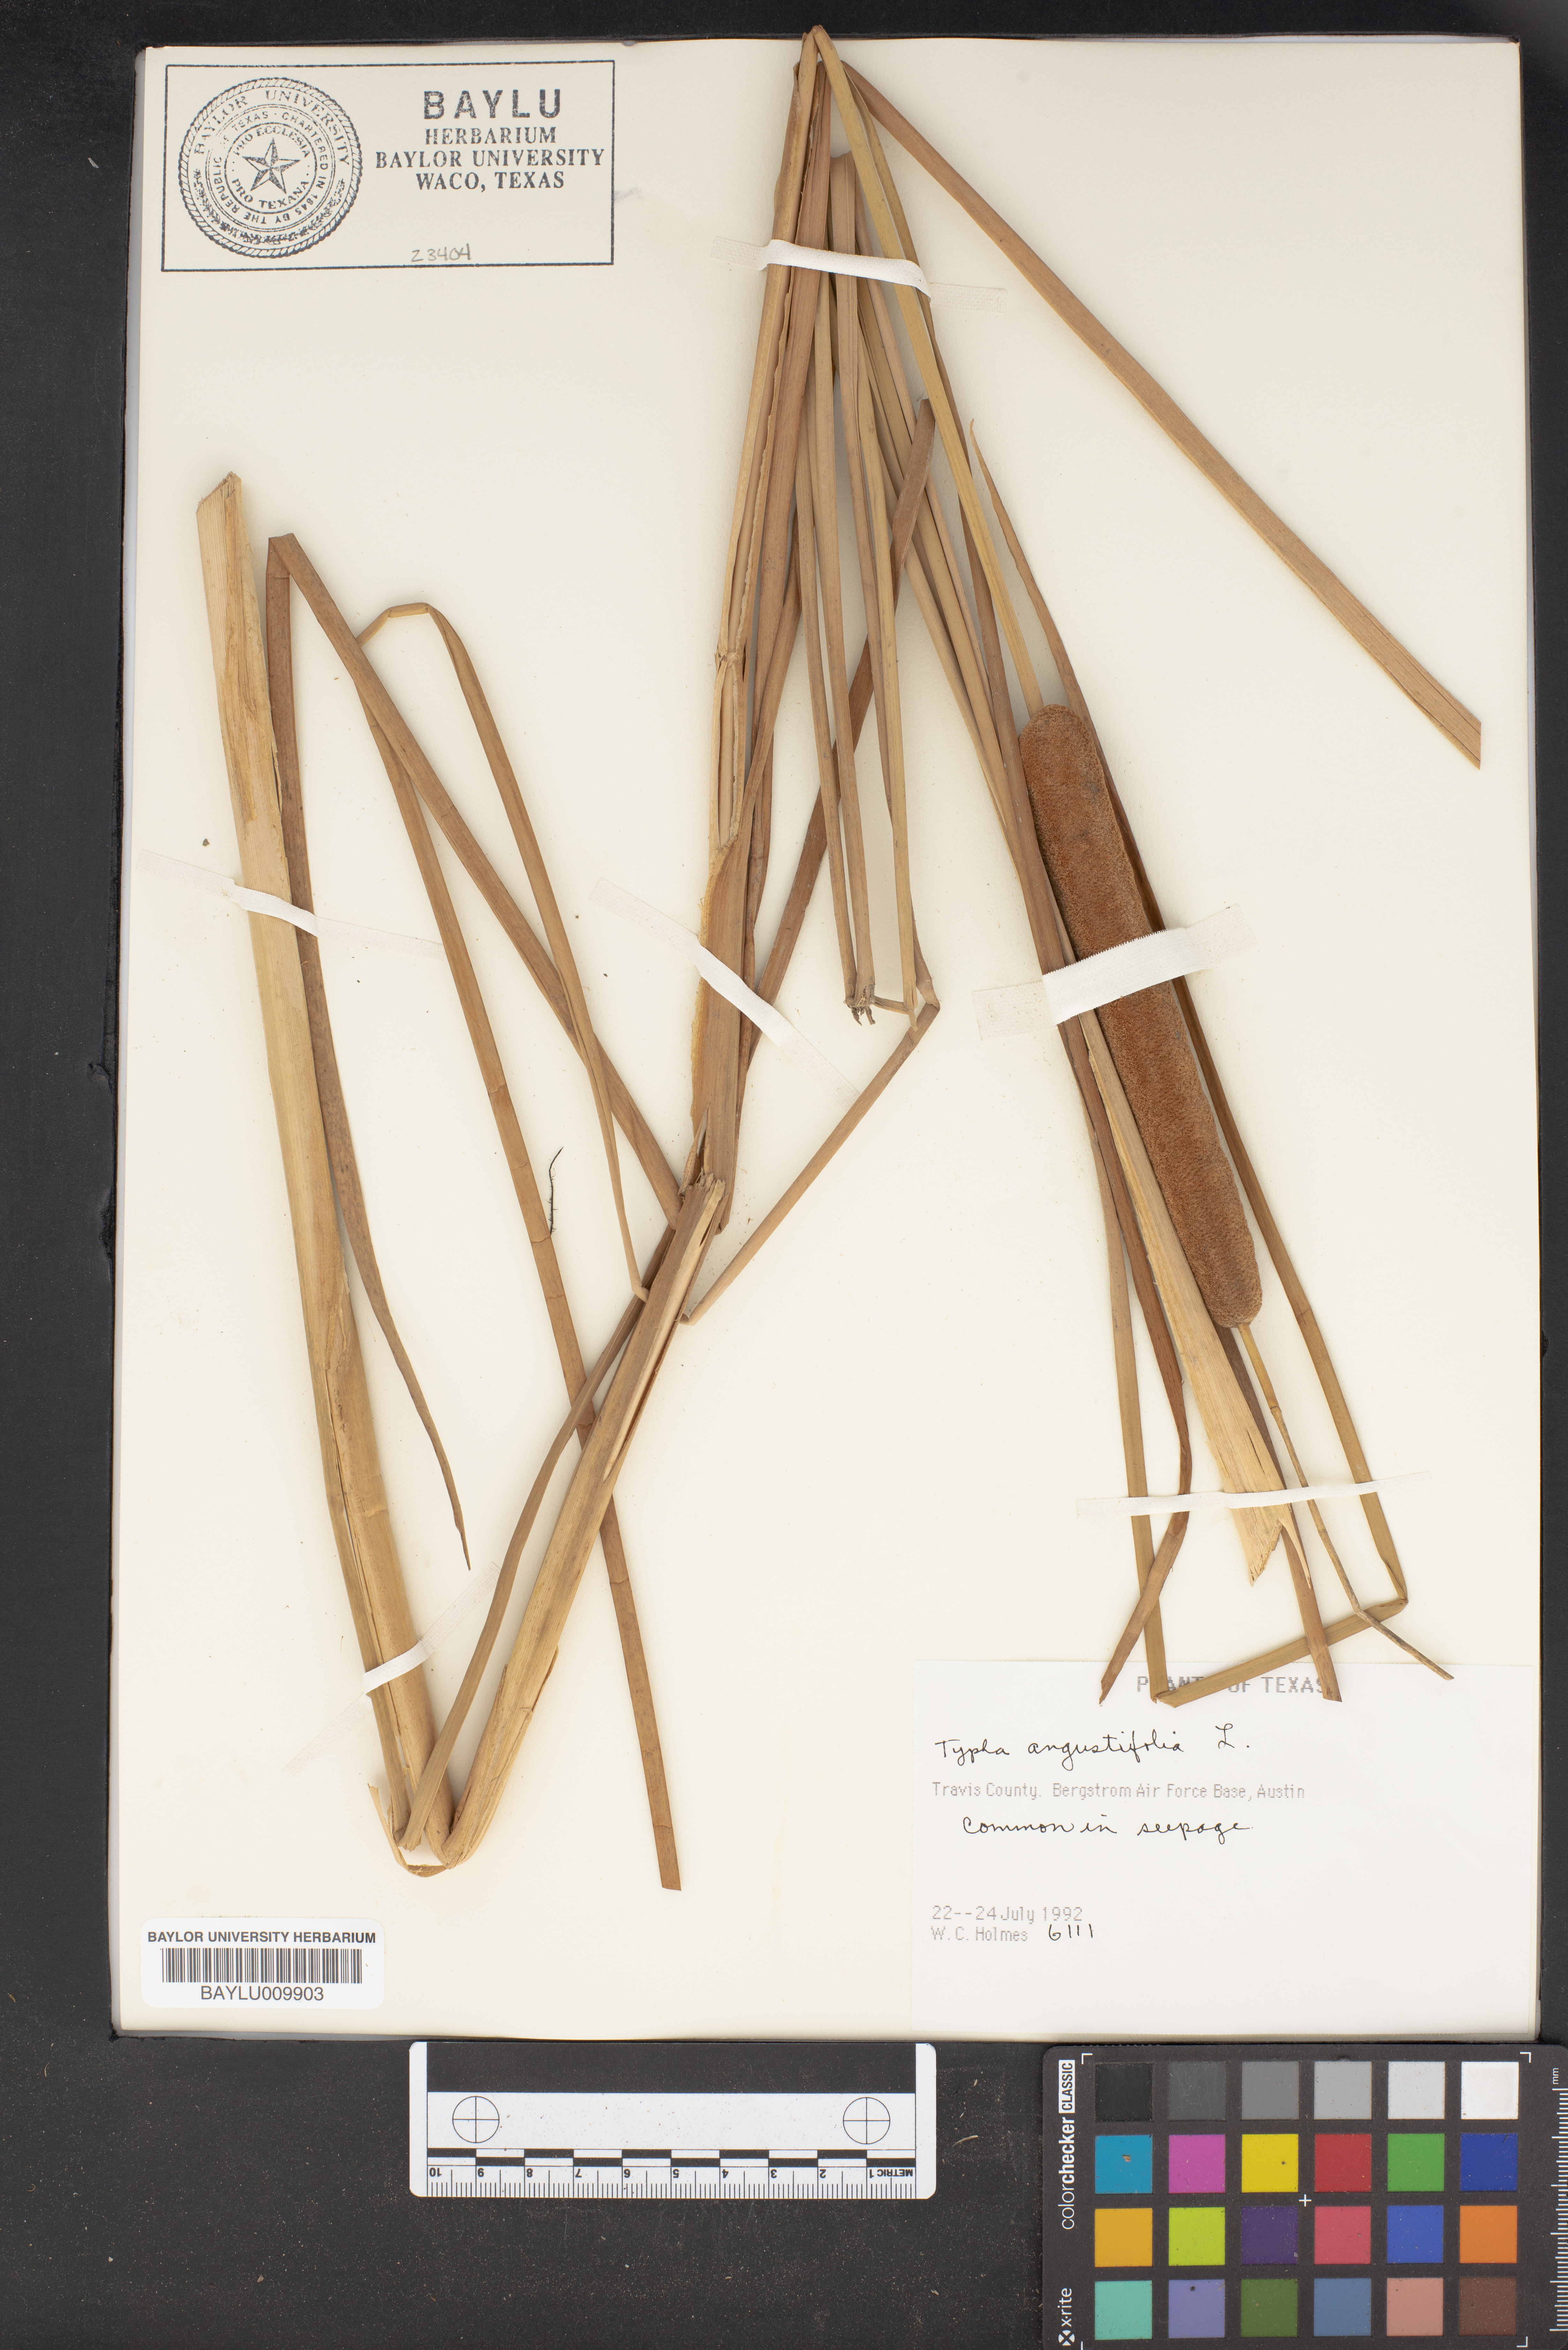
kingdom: Plantae
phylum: Tracheophyta
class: Liliopsida
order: Poales
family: Typhaceae
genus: Typha
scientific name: Typha angustifolia
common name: Lesser bulrush
